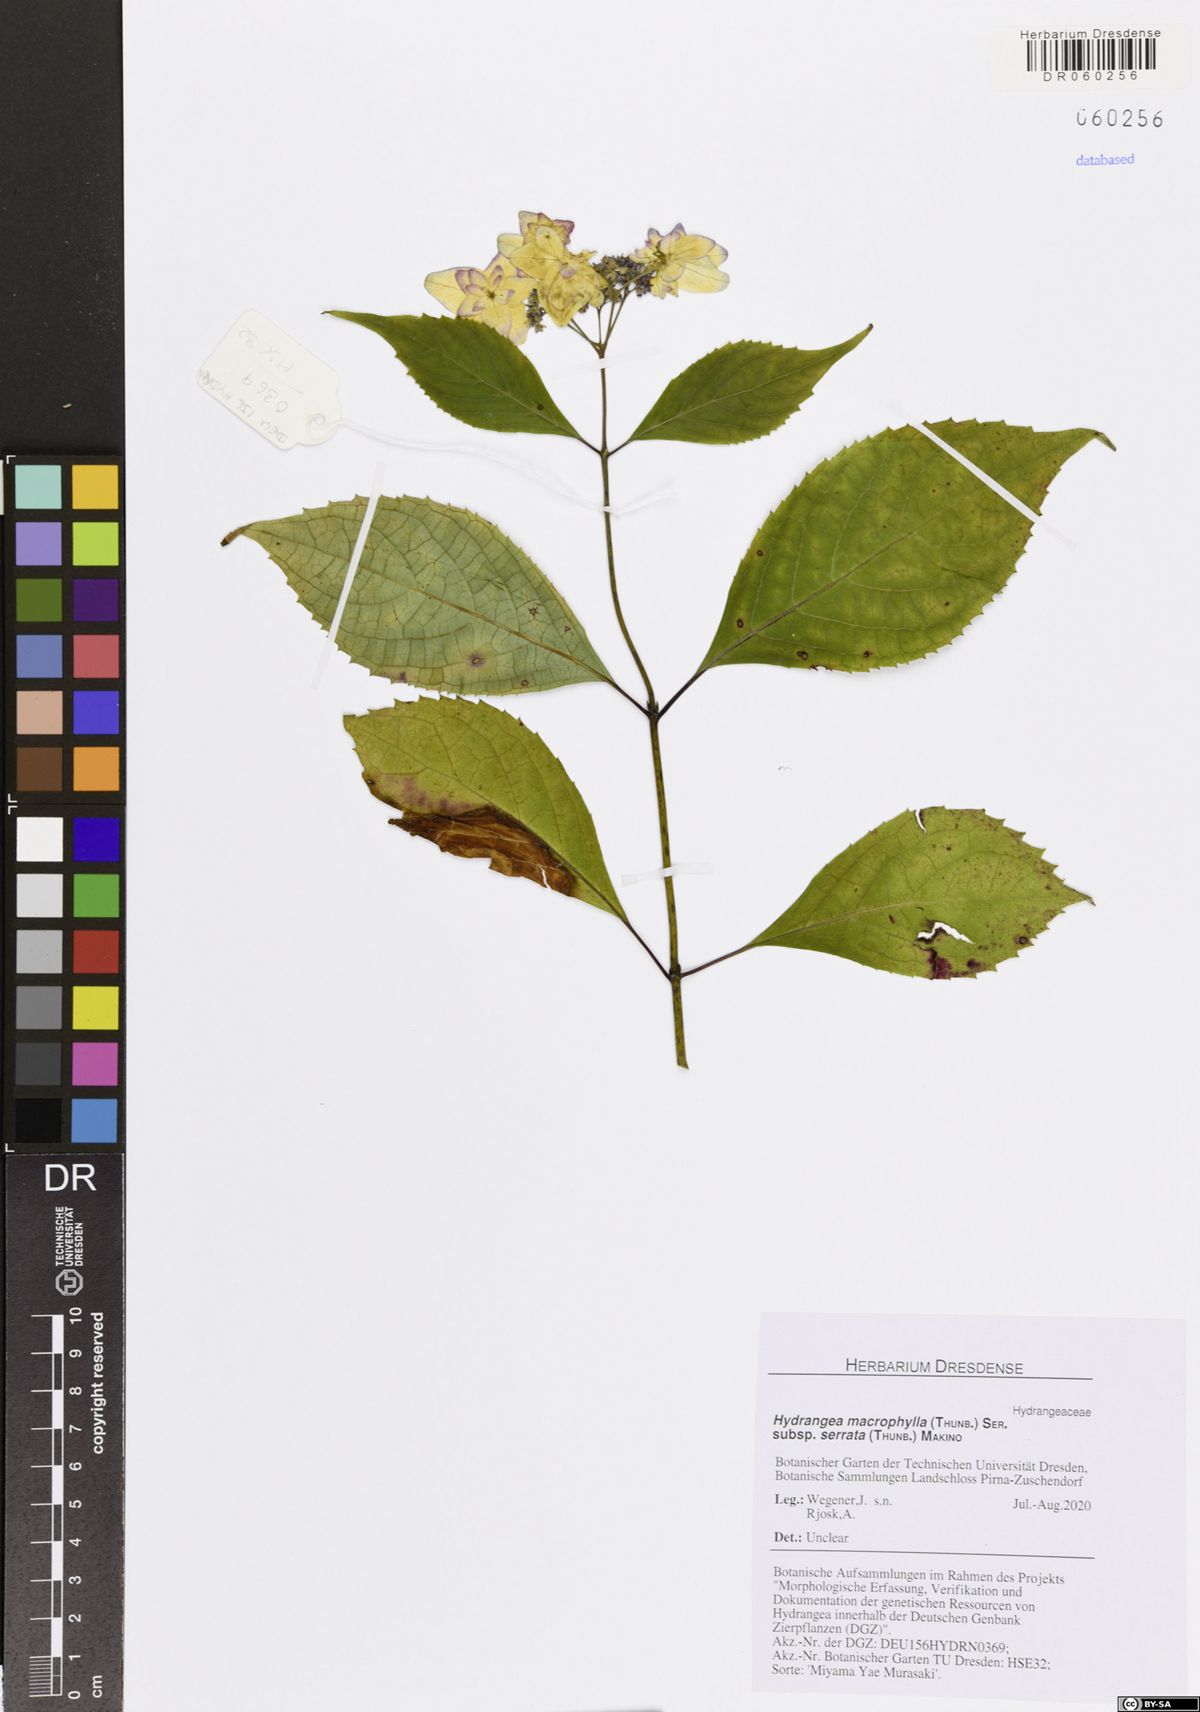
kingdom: Plantae
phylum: Tracheophyta
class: Magnoliopsida
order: Cornales
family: Hydrangeaceae
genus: Hydrangea
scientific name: Hydrangea serrata
